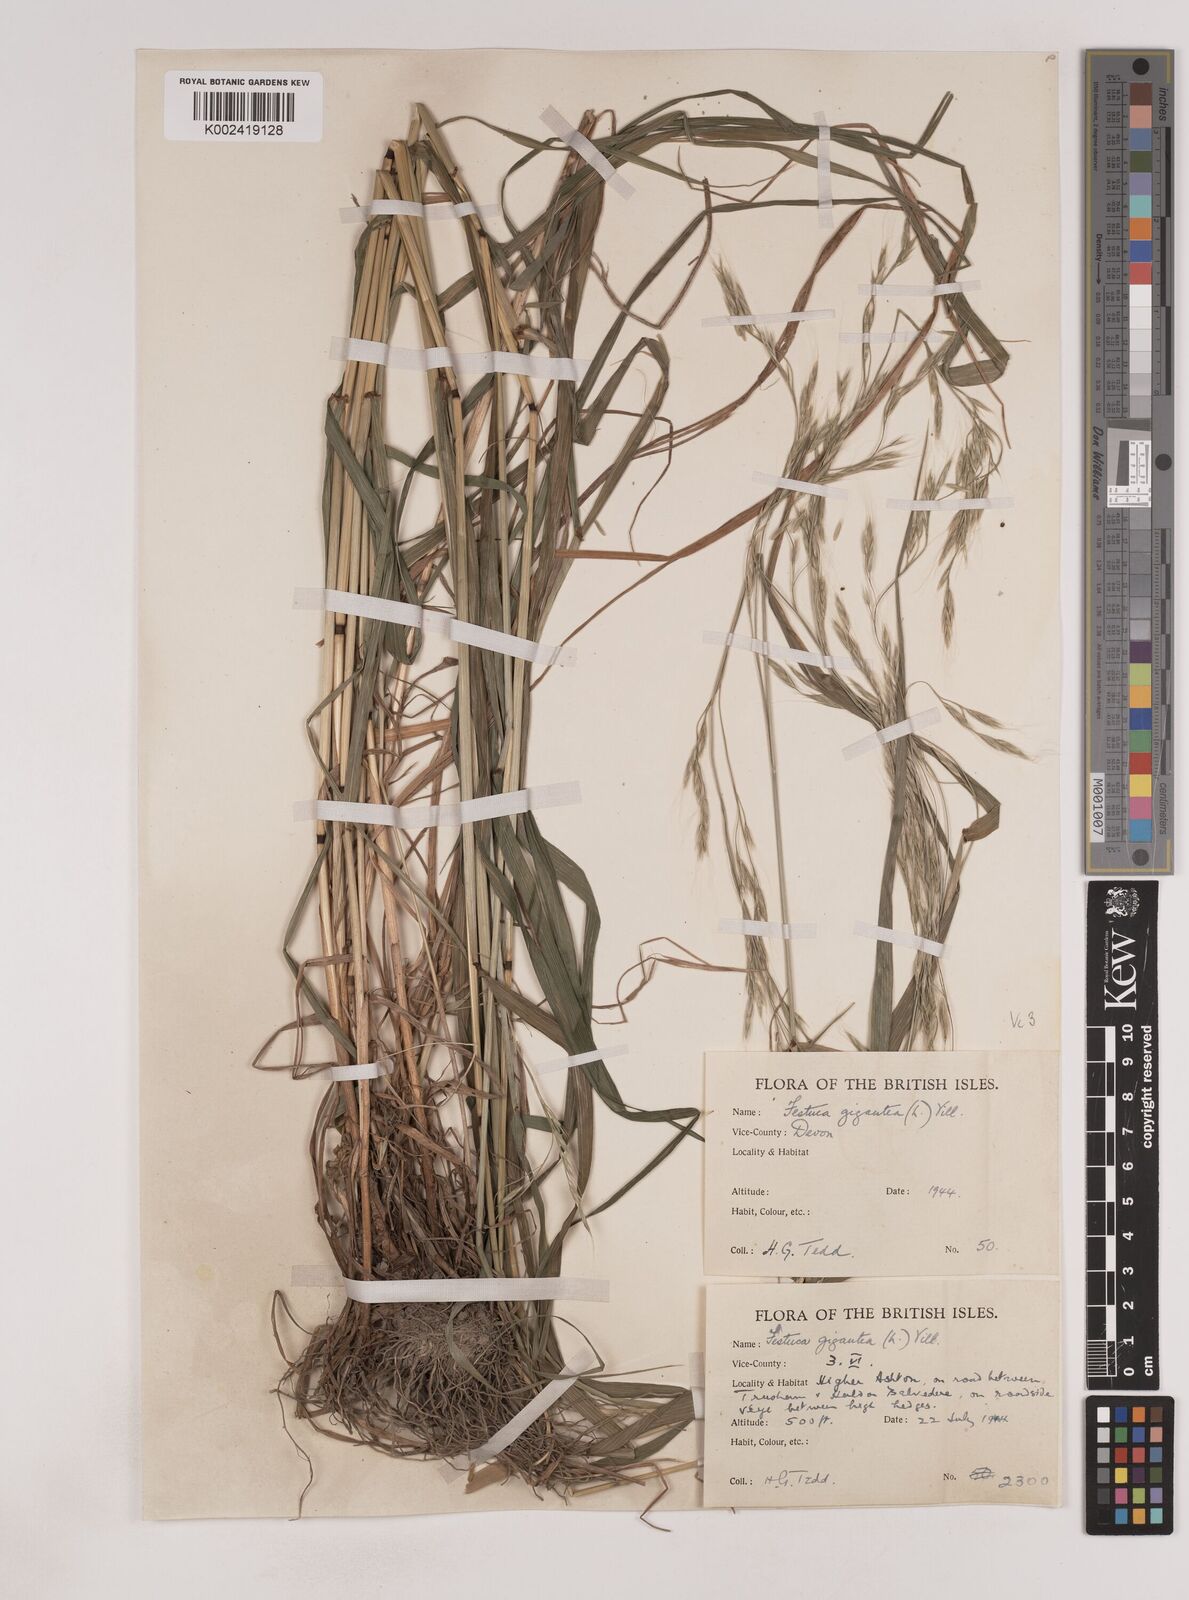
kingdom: Plantae
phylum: Tracheophyta
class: Liliopsida
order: Poales
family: Poaceae
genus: Lolium
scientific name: Lolium giganteum
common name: Giant fescue
